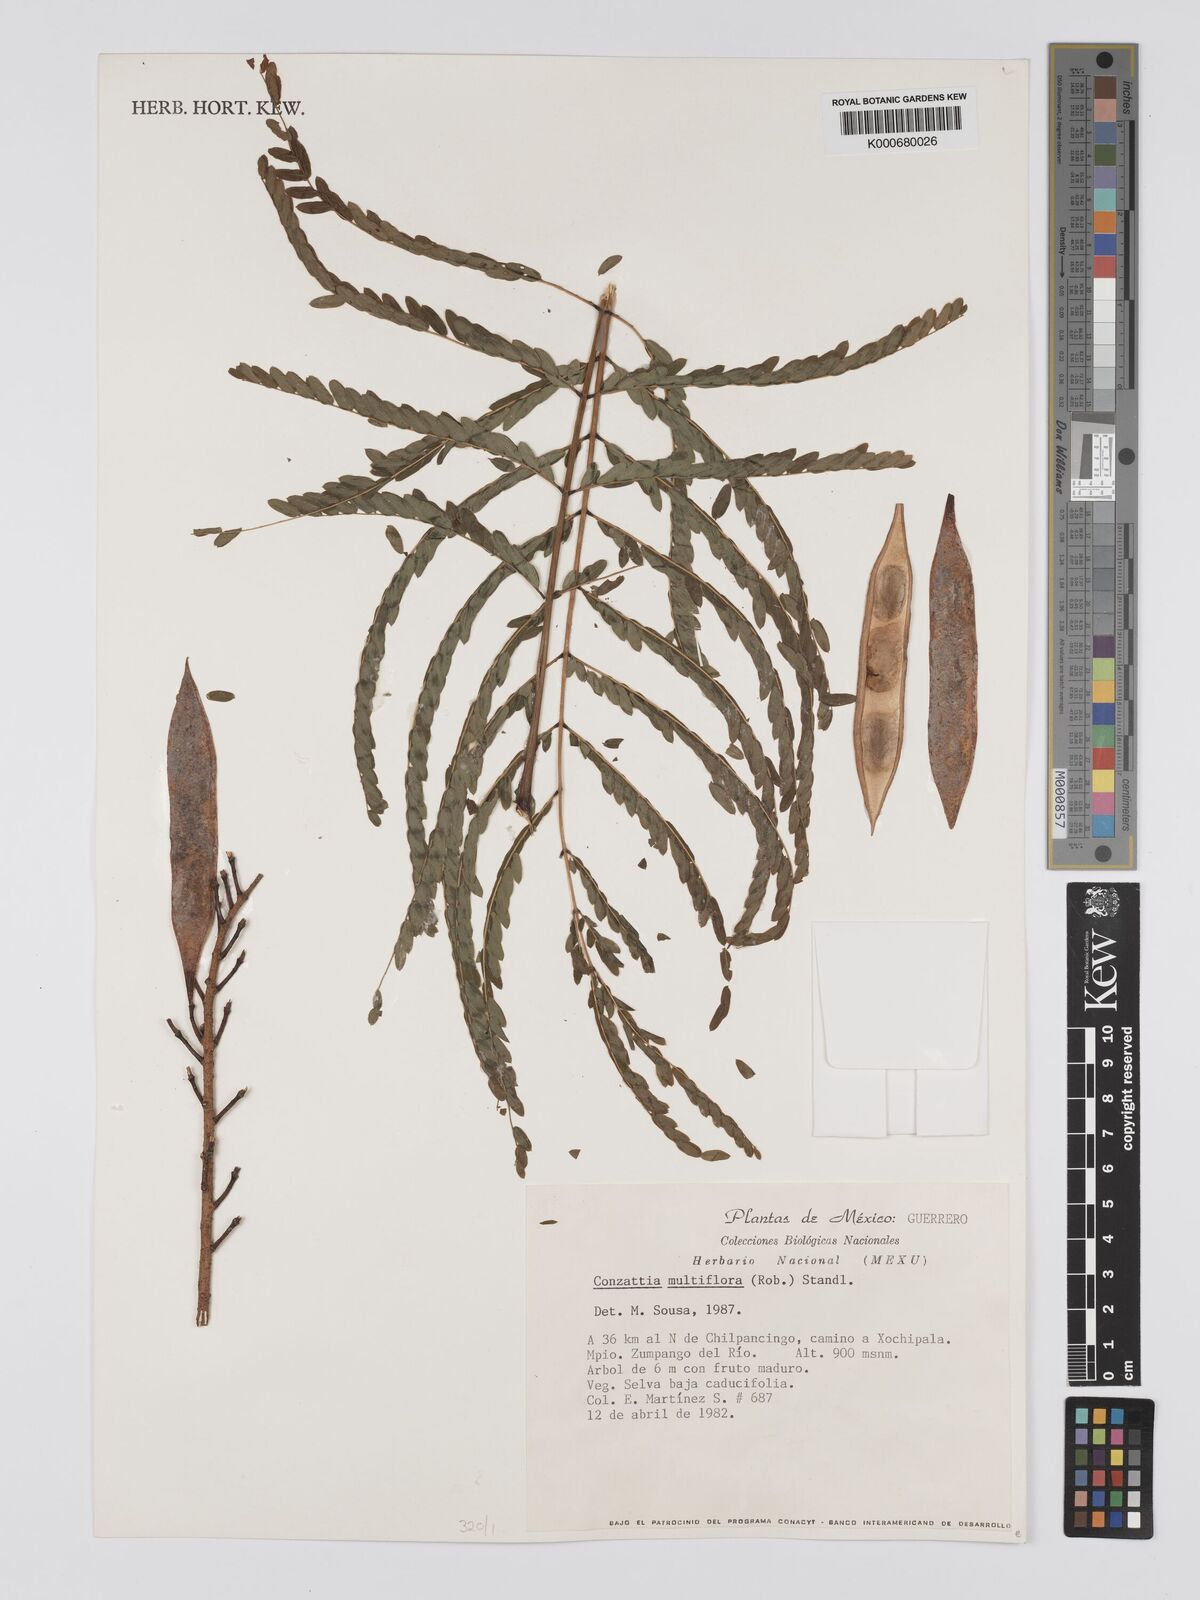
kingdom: Plantae
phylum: Tracheophyta
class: Magnoliopsida
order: Fabales
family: Fabaceae
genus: Conzattia
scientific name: Conzattia multiflora
